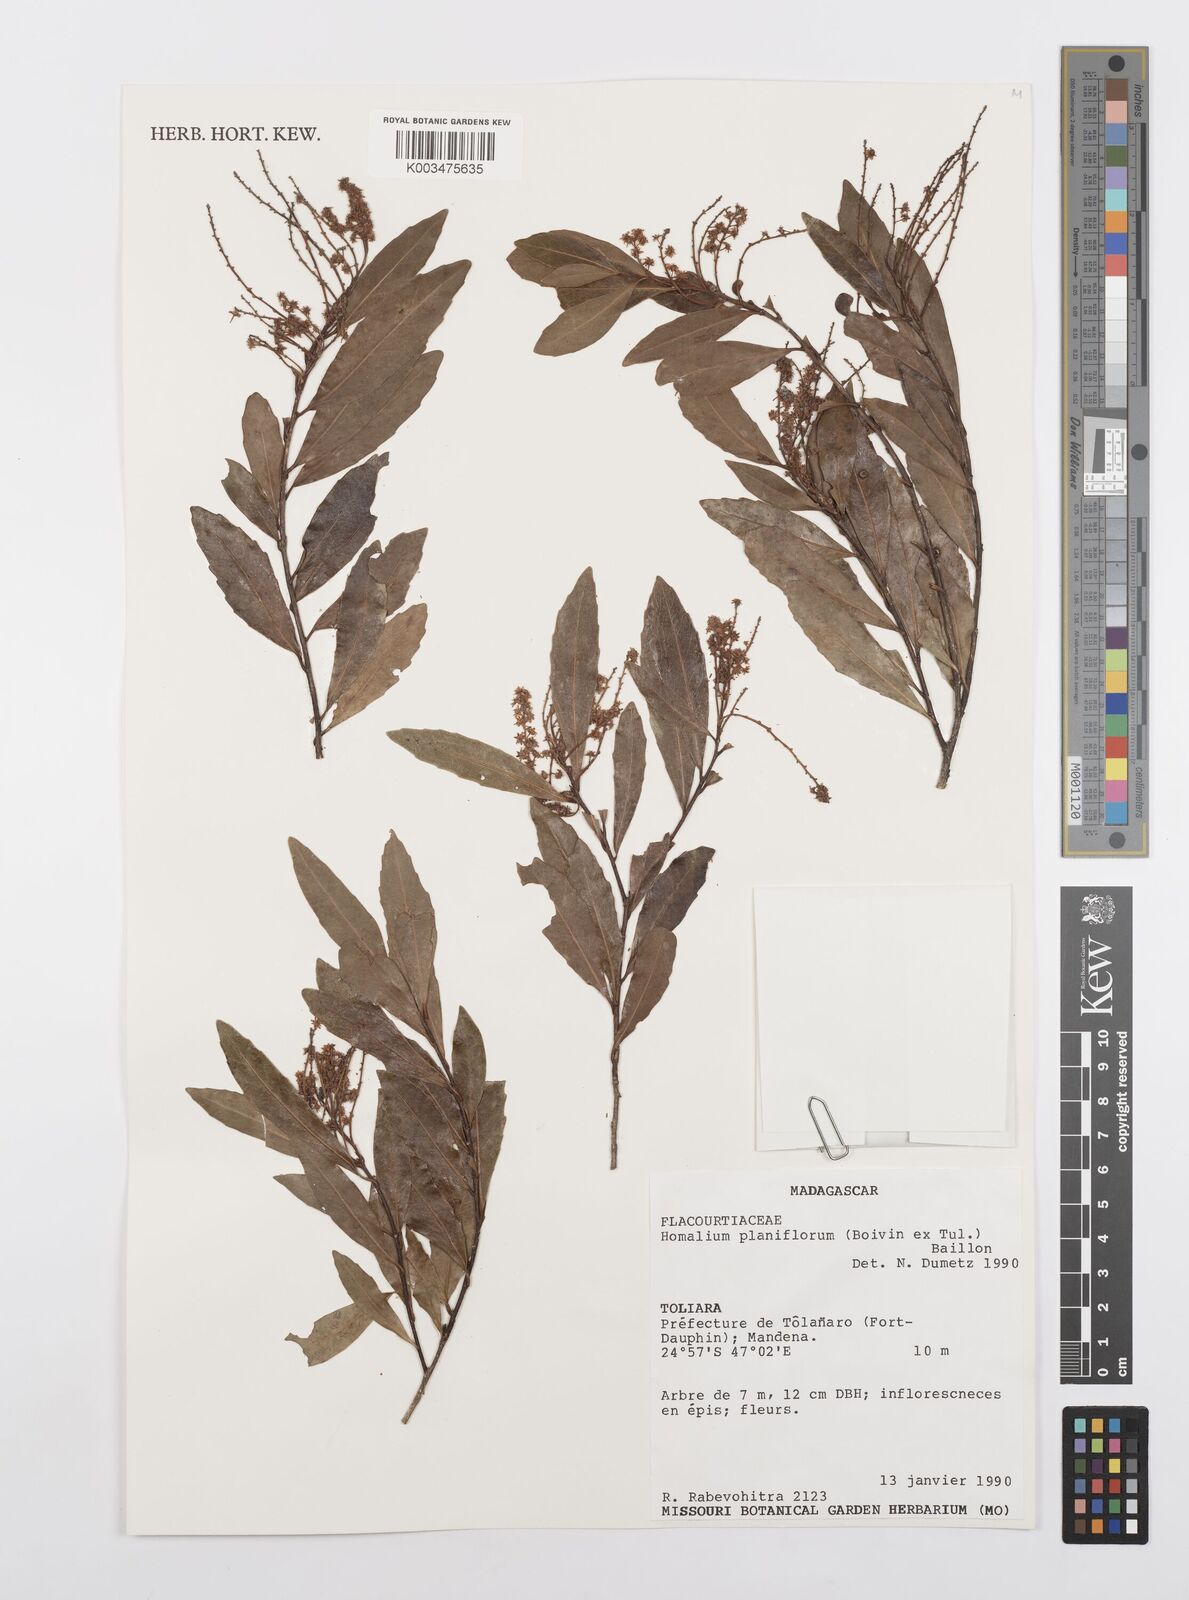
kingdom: Plantae
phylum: Tracheophyta
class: Magnoliopsida
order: Malpighiales
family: Salicaceae
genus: Homalium
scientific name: Homalium planiflorum
